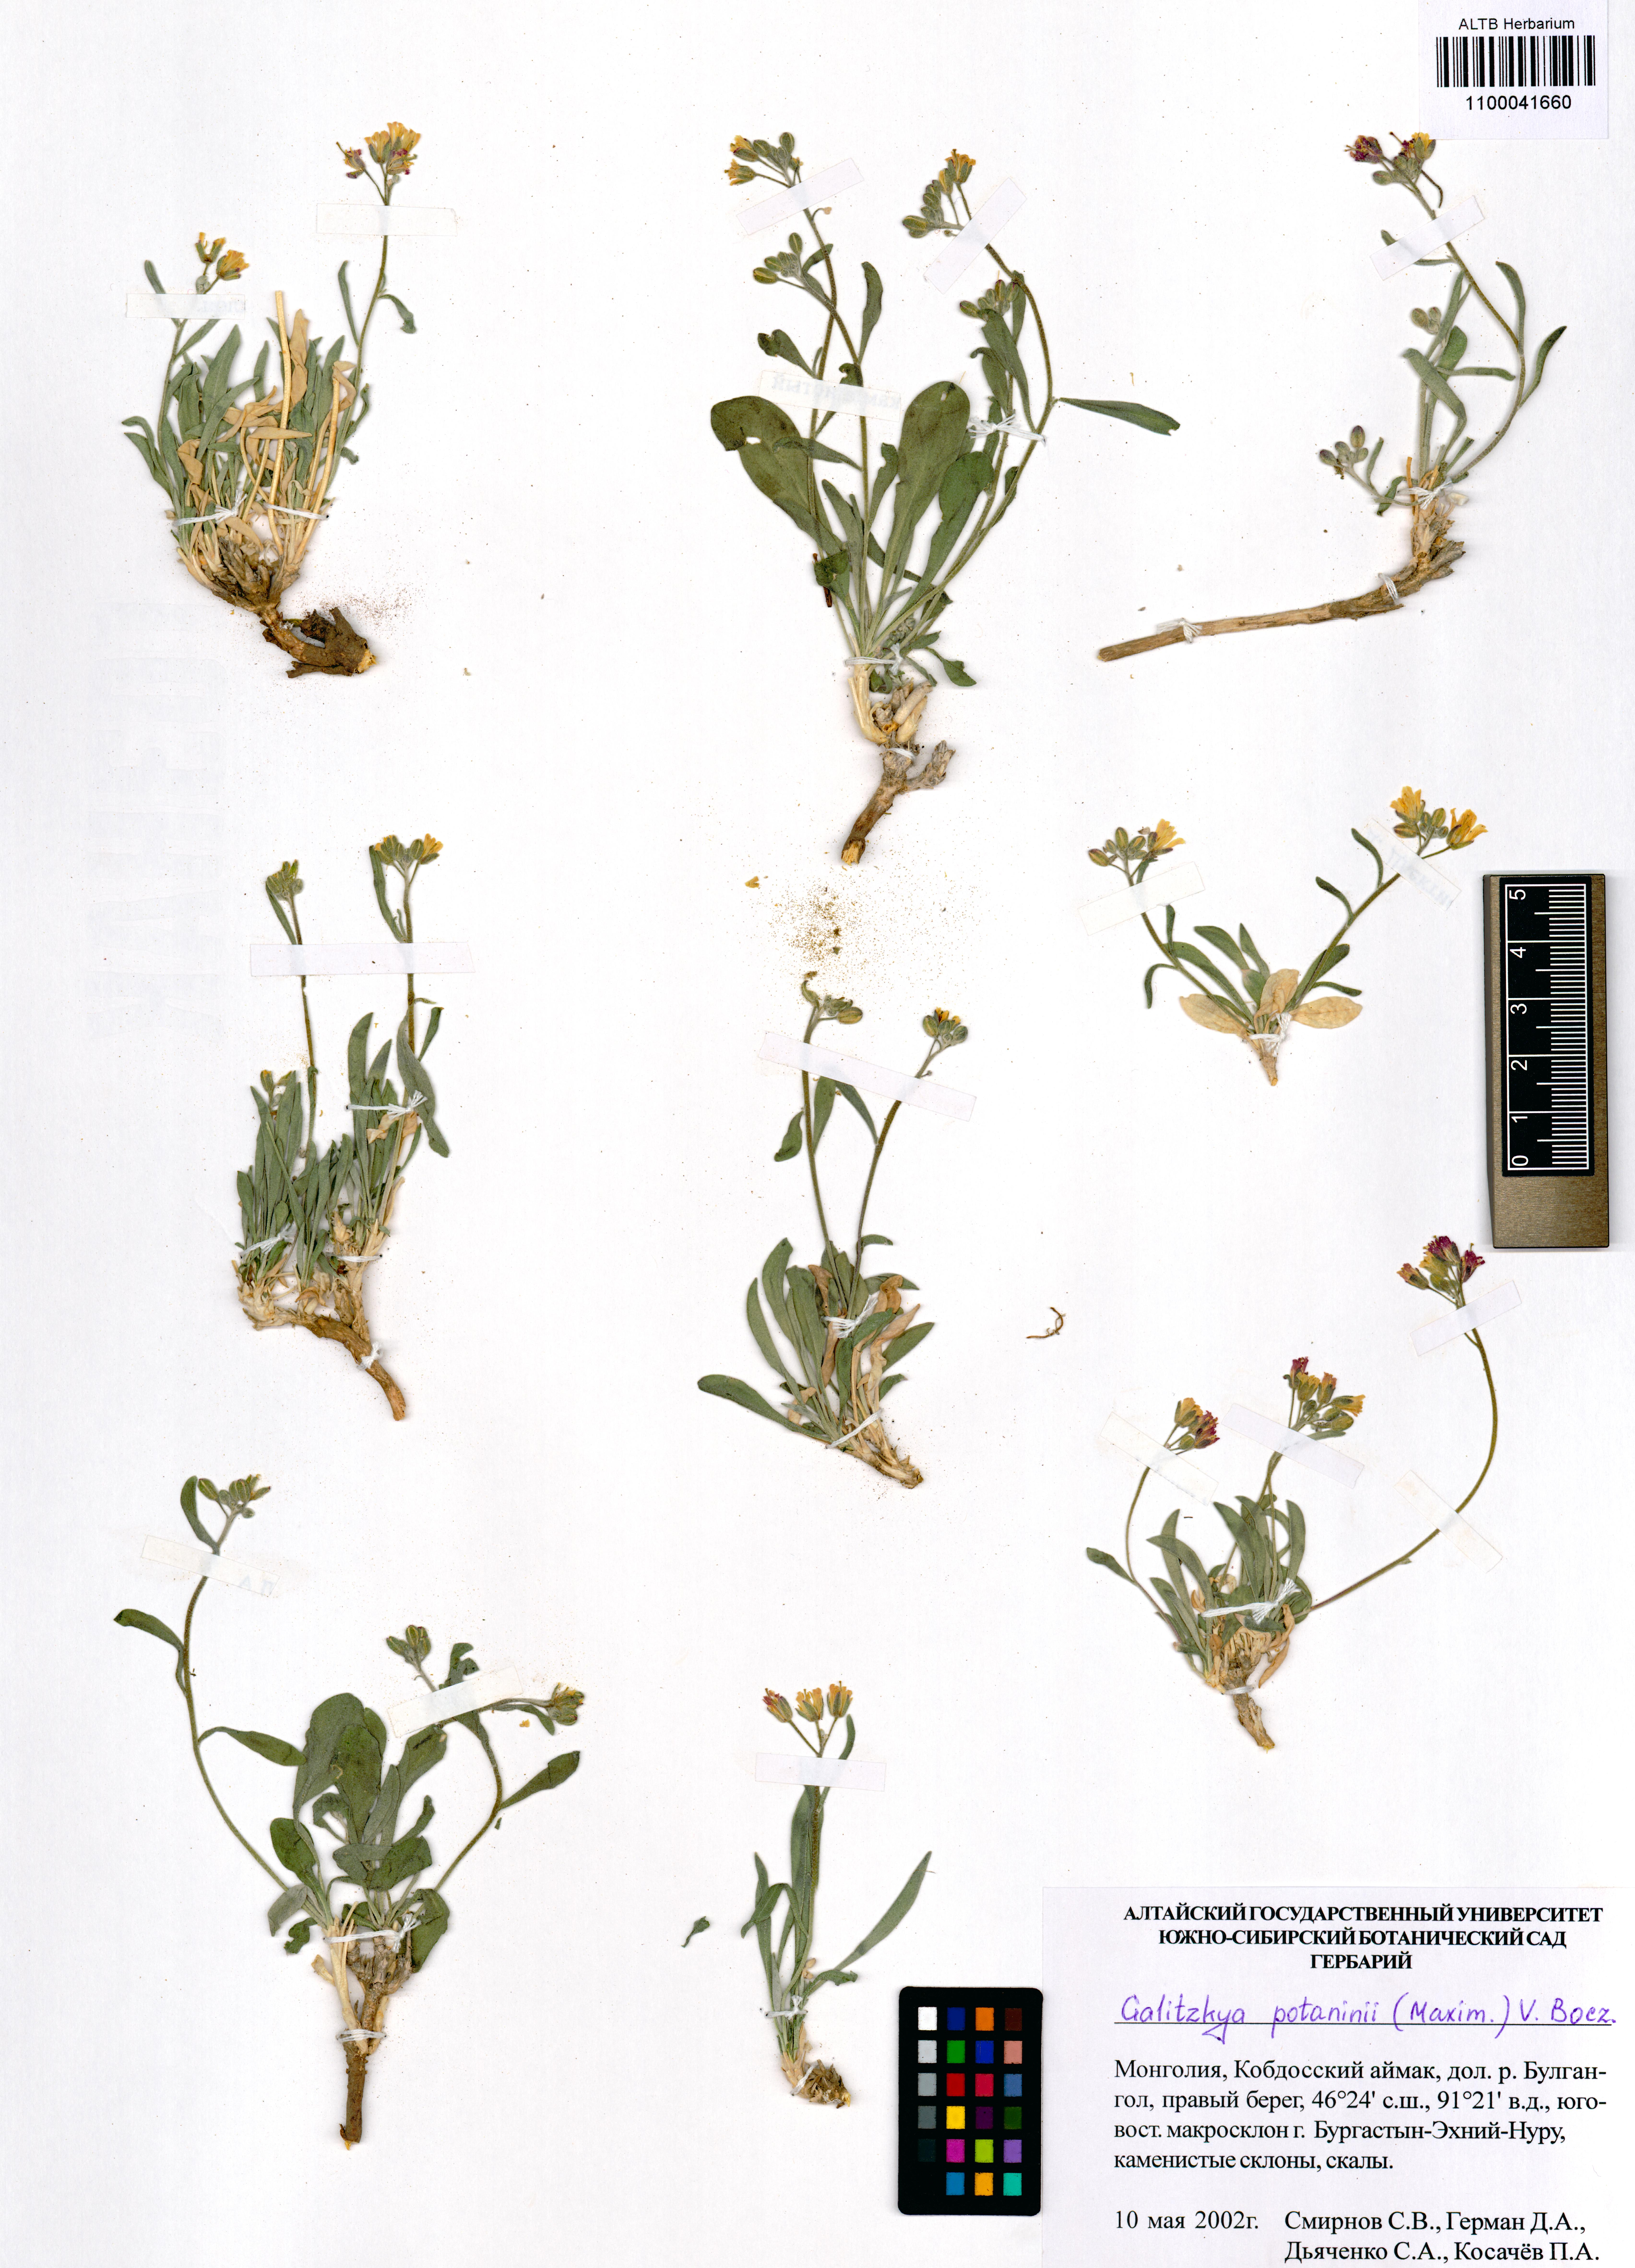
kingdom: Plantae
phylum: Tracheophyta
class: Magnoliopsida
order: Brassicales
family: Brassicaceae
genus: Galitzkya
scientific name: Galitzkya potaninii
